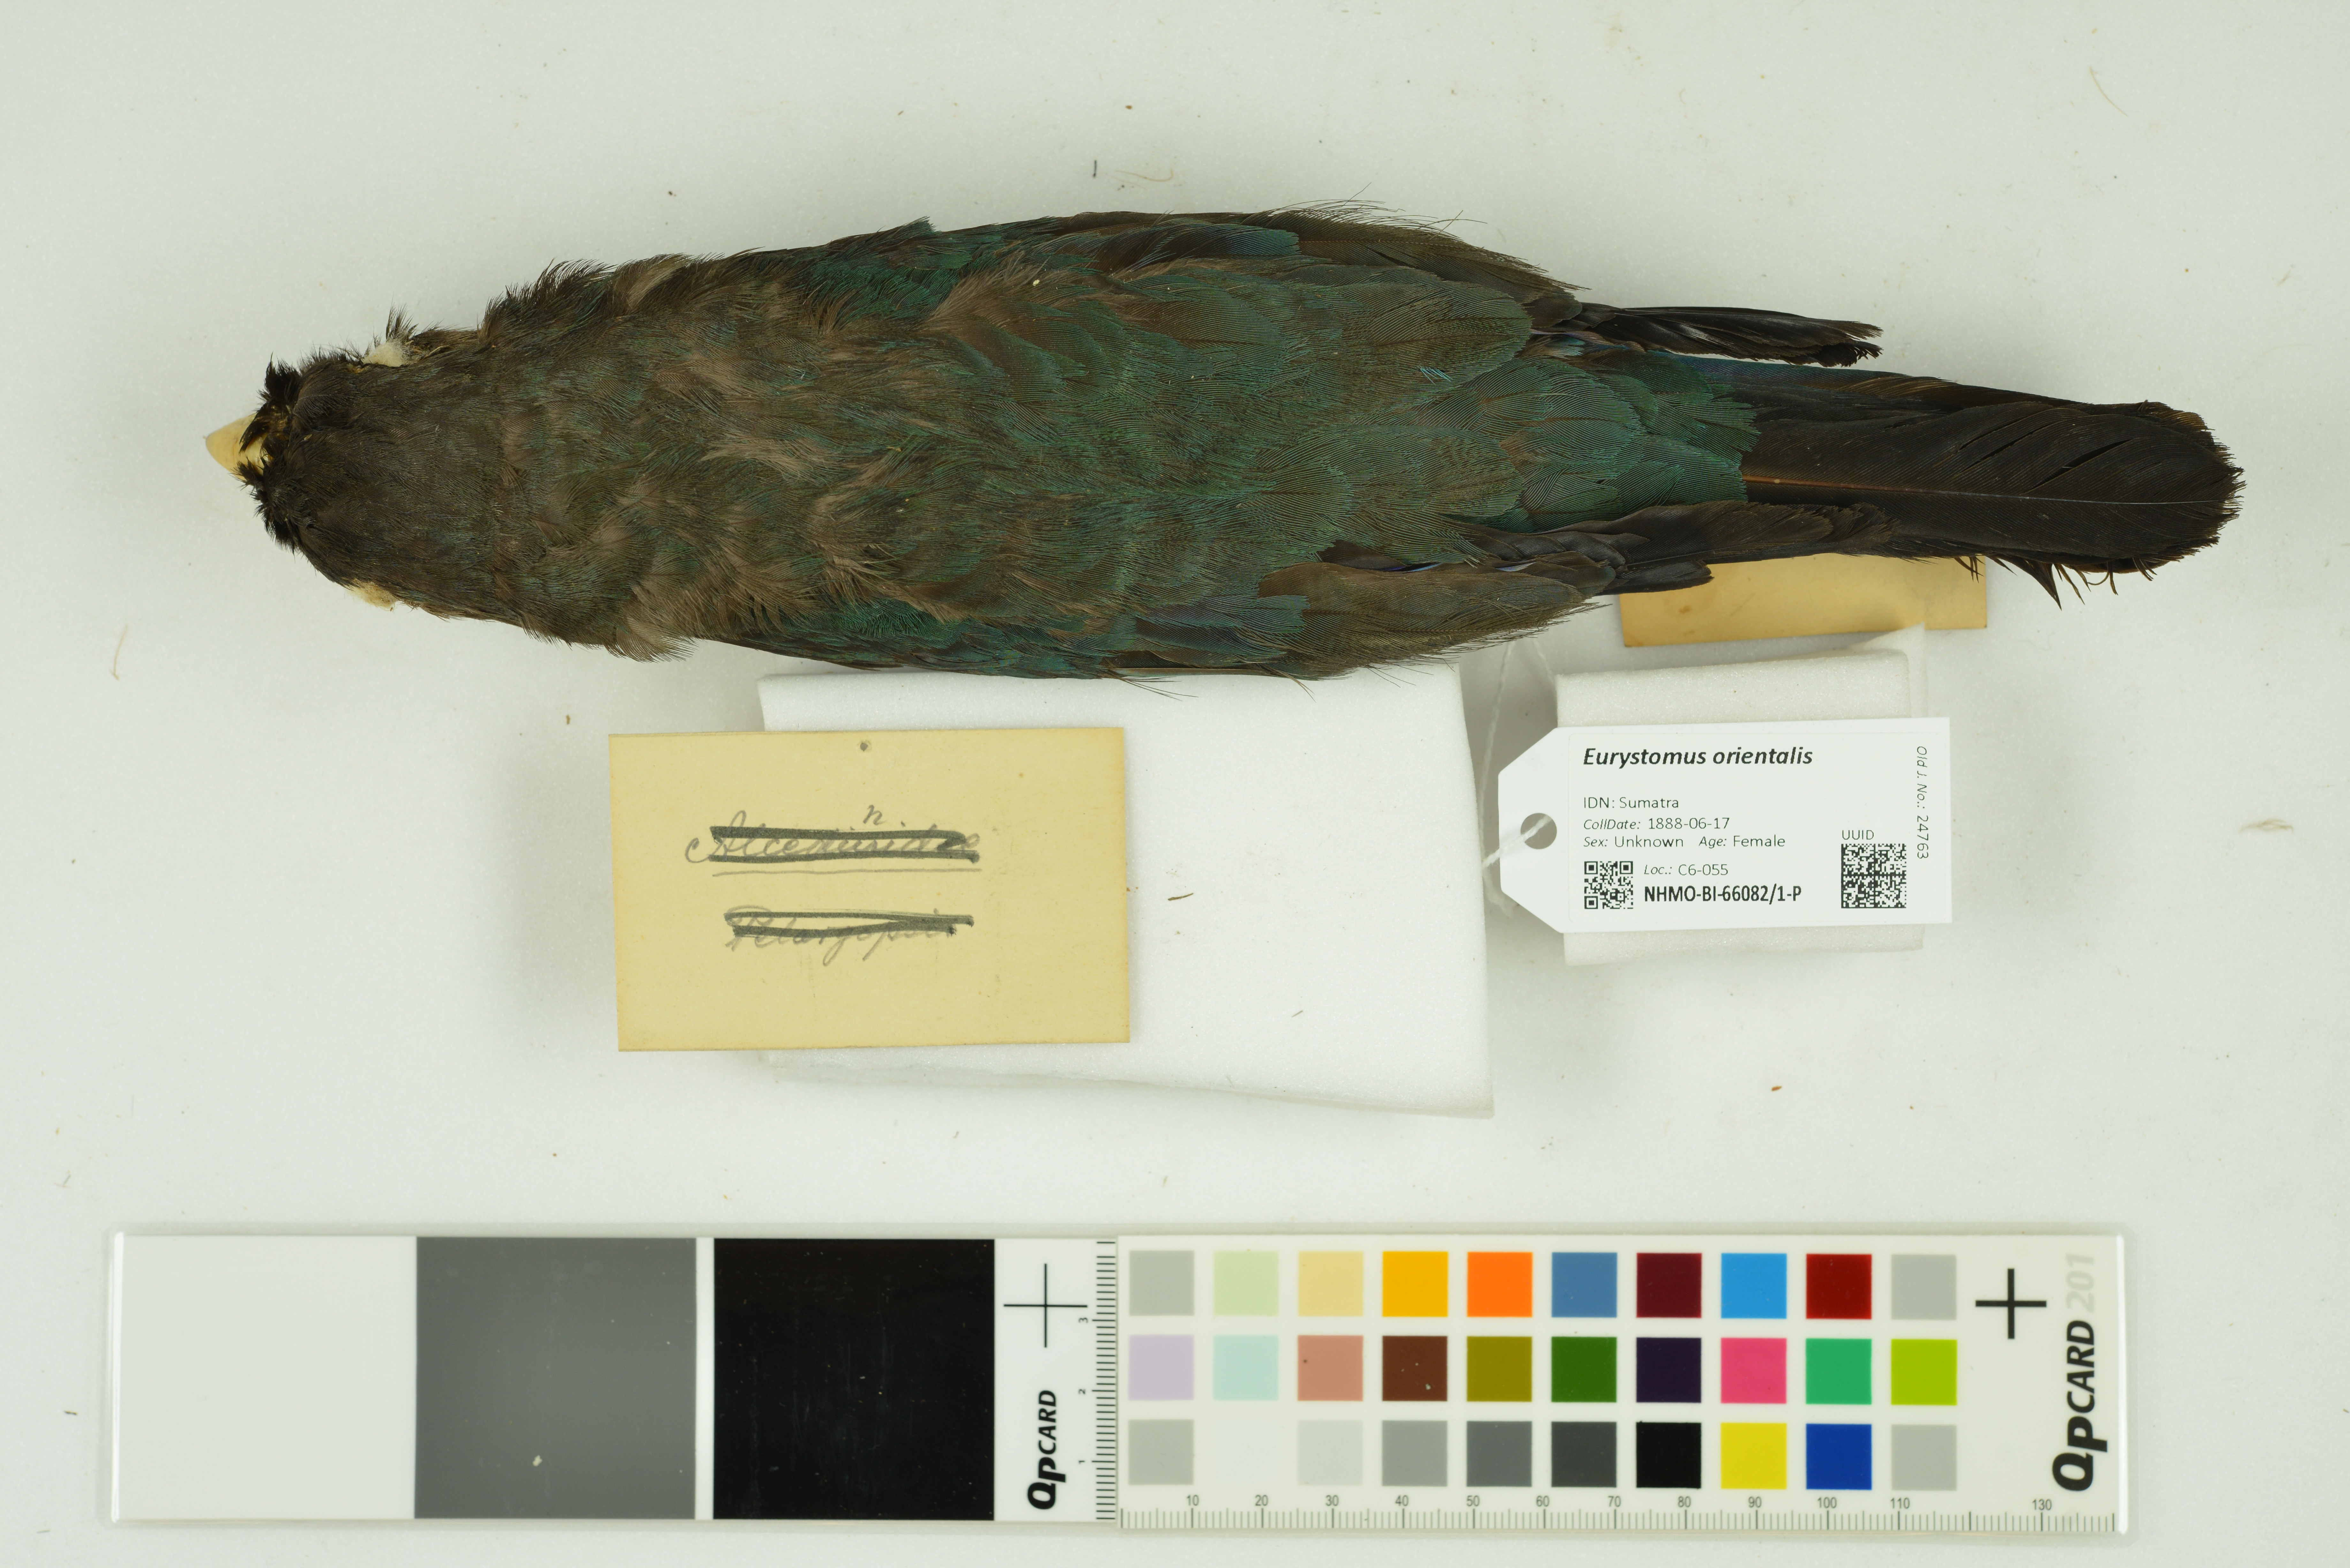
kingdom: Animalia
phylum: Chordata
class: Aves
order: Coraciiformes
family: Coraciidae
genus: Eurystomus
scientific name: Eurystomus orientalis
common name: Oriental dollarbird
